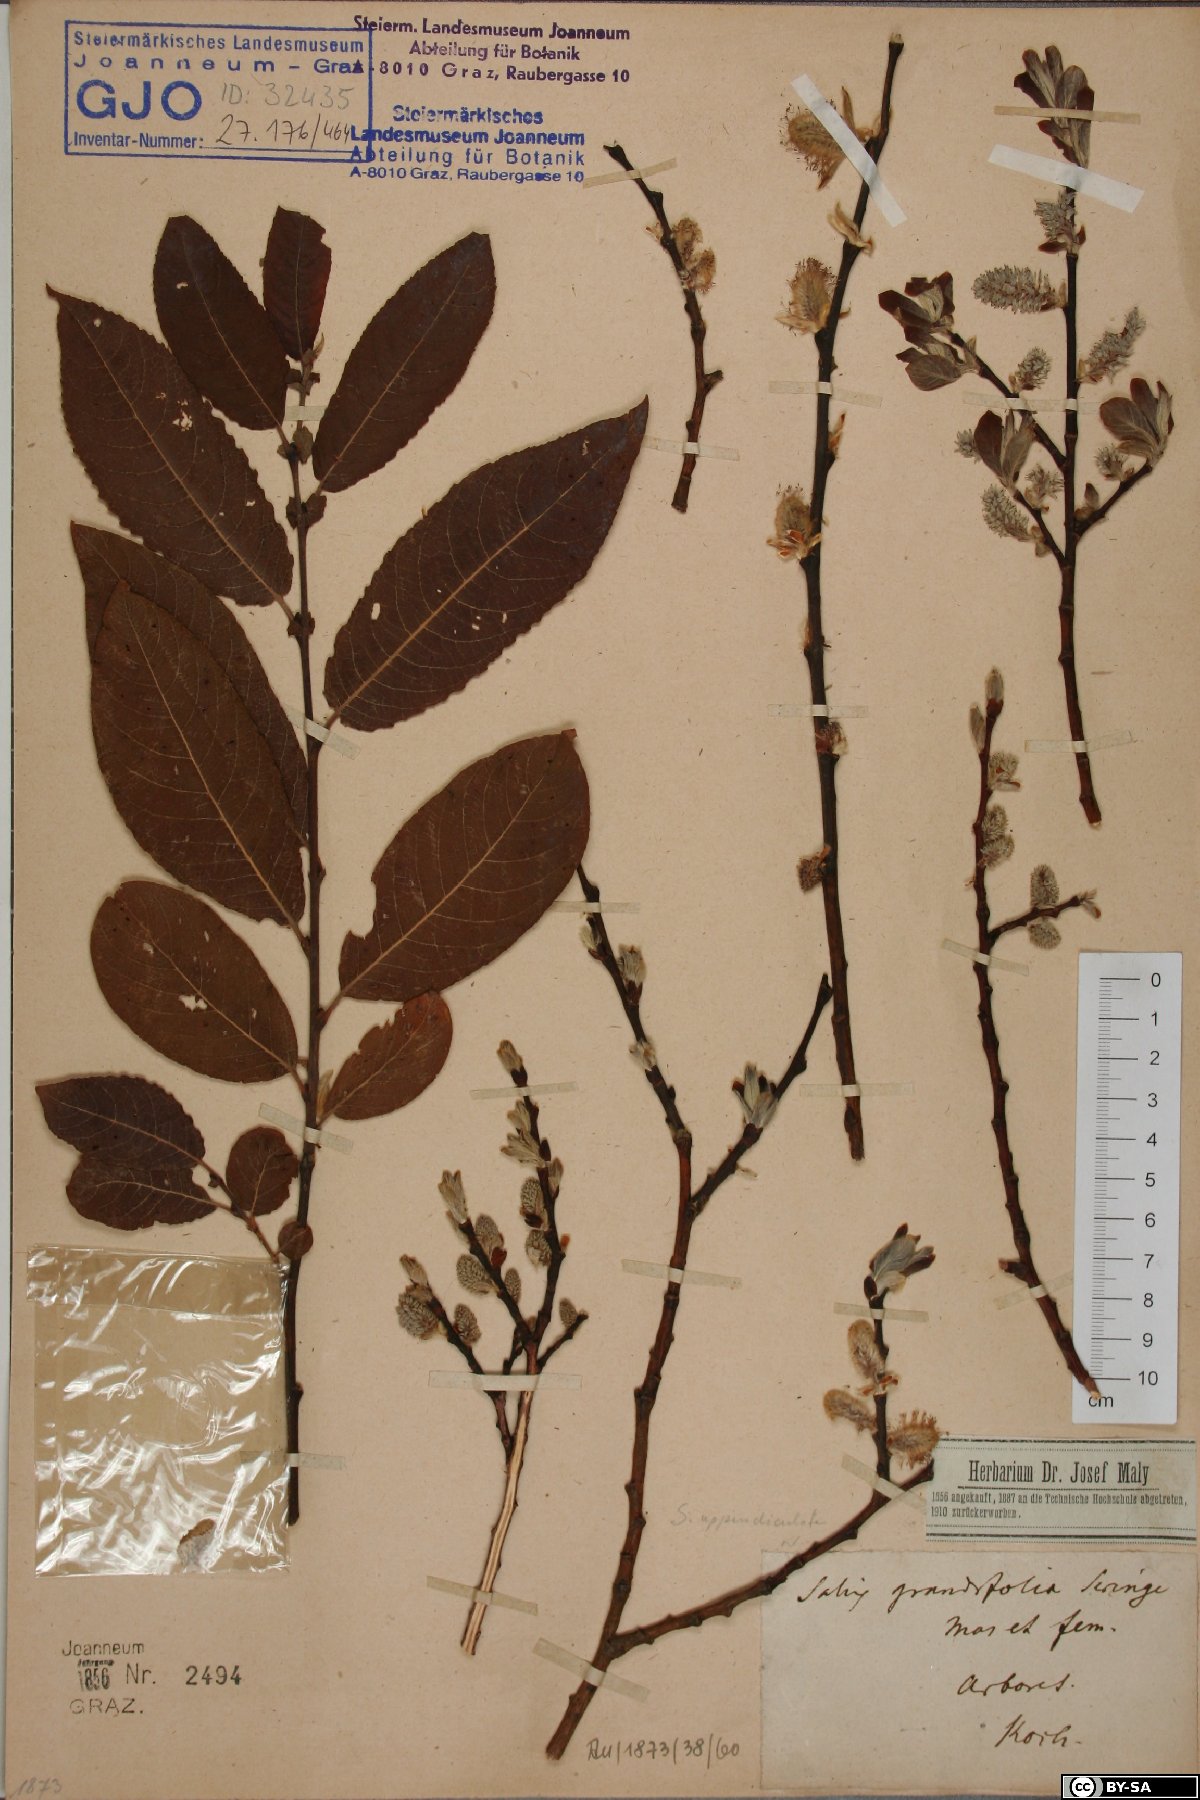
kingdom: Plantae
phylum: Tracheophyta
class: Magnoliopsida
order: Malpighiales
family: Salicaceae
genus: Salix
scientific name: Salix appendiculata
